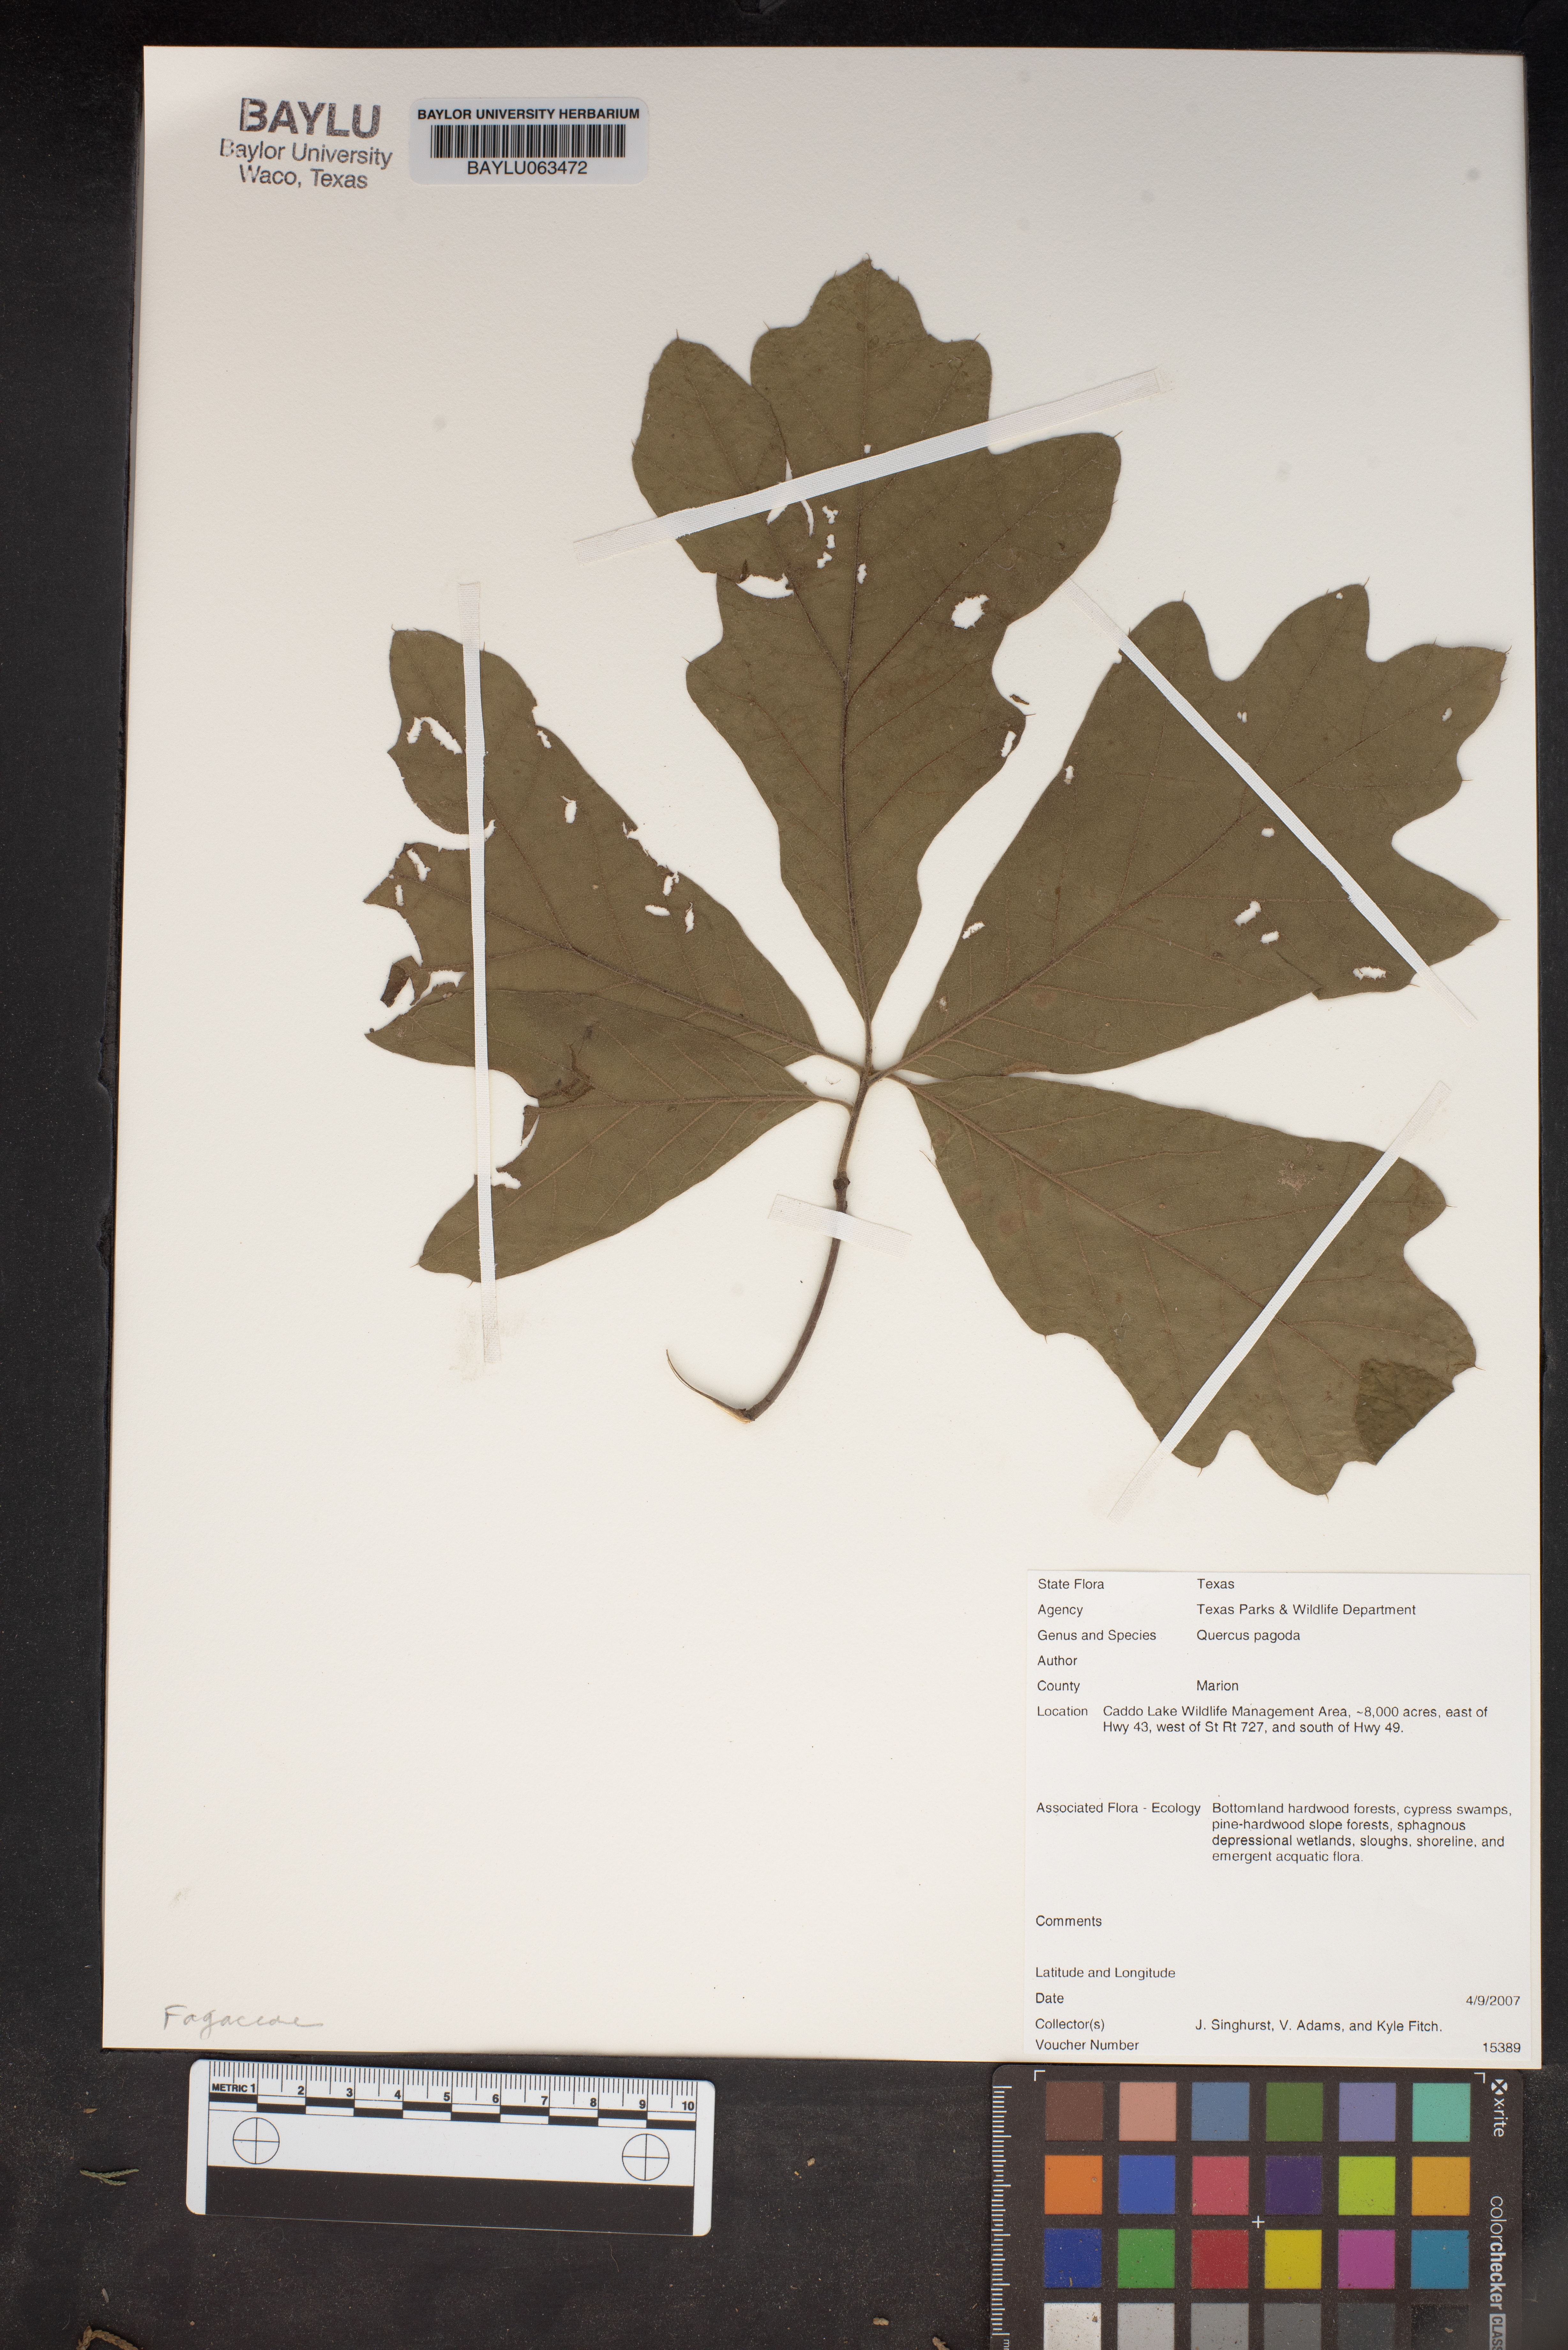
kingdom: Plantae
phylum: Tracheophyta
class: Magnoliopsida
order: Fagales
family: Fagaceae
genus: Quercus
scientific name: Quercus pagoda
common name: Cherrybark oak
